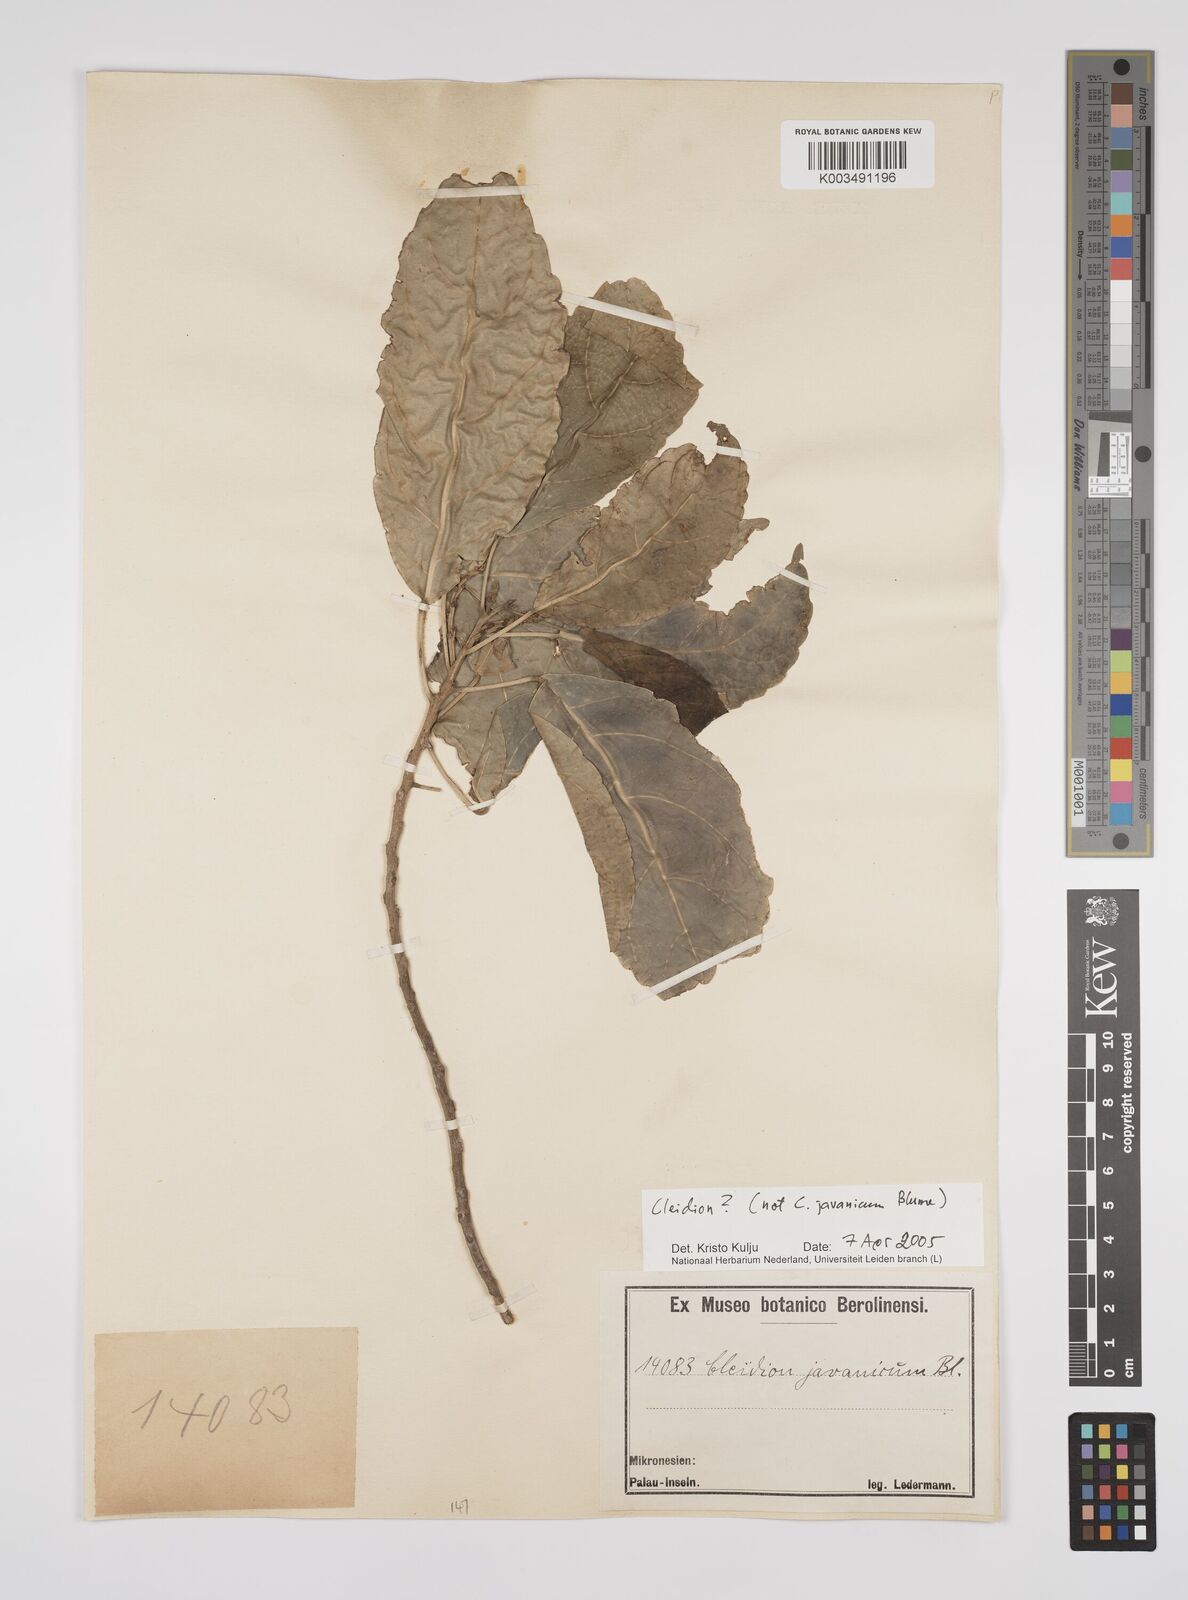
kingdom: Plantae
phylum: Tracheophyta
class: Magnoliopsida
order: Malpighiales
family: Euphorbiaceae
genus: Cleidion
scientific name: Cleidion
